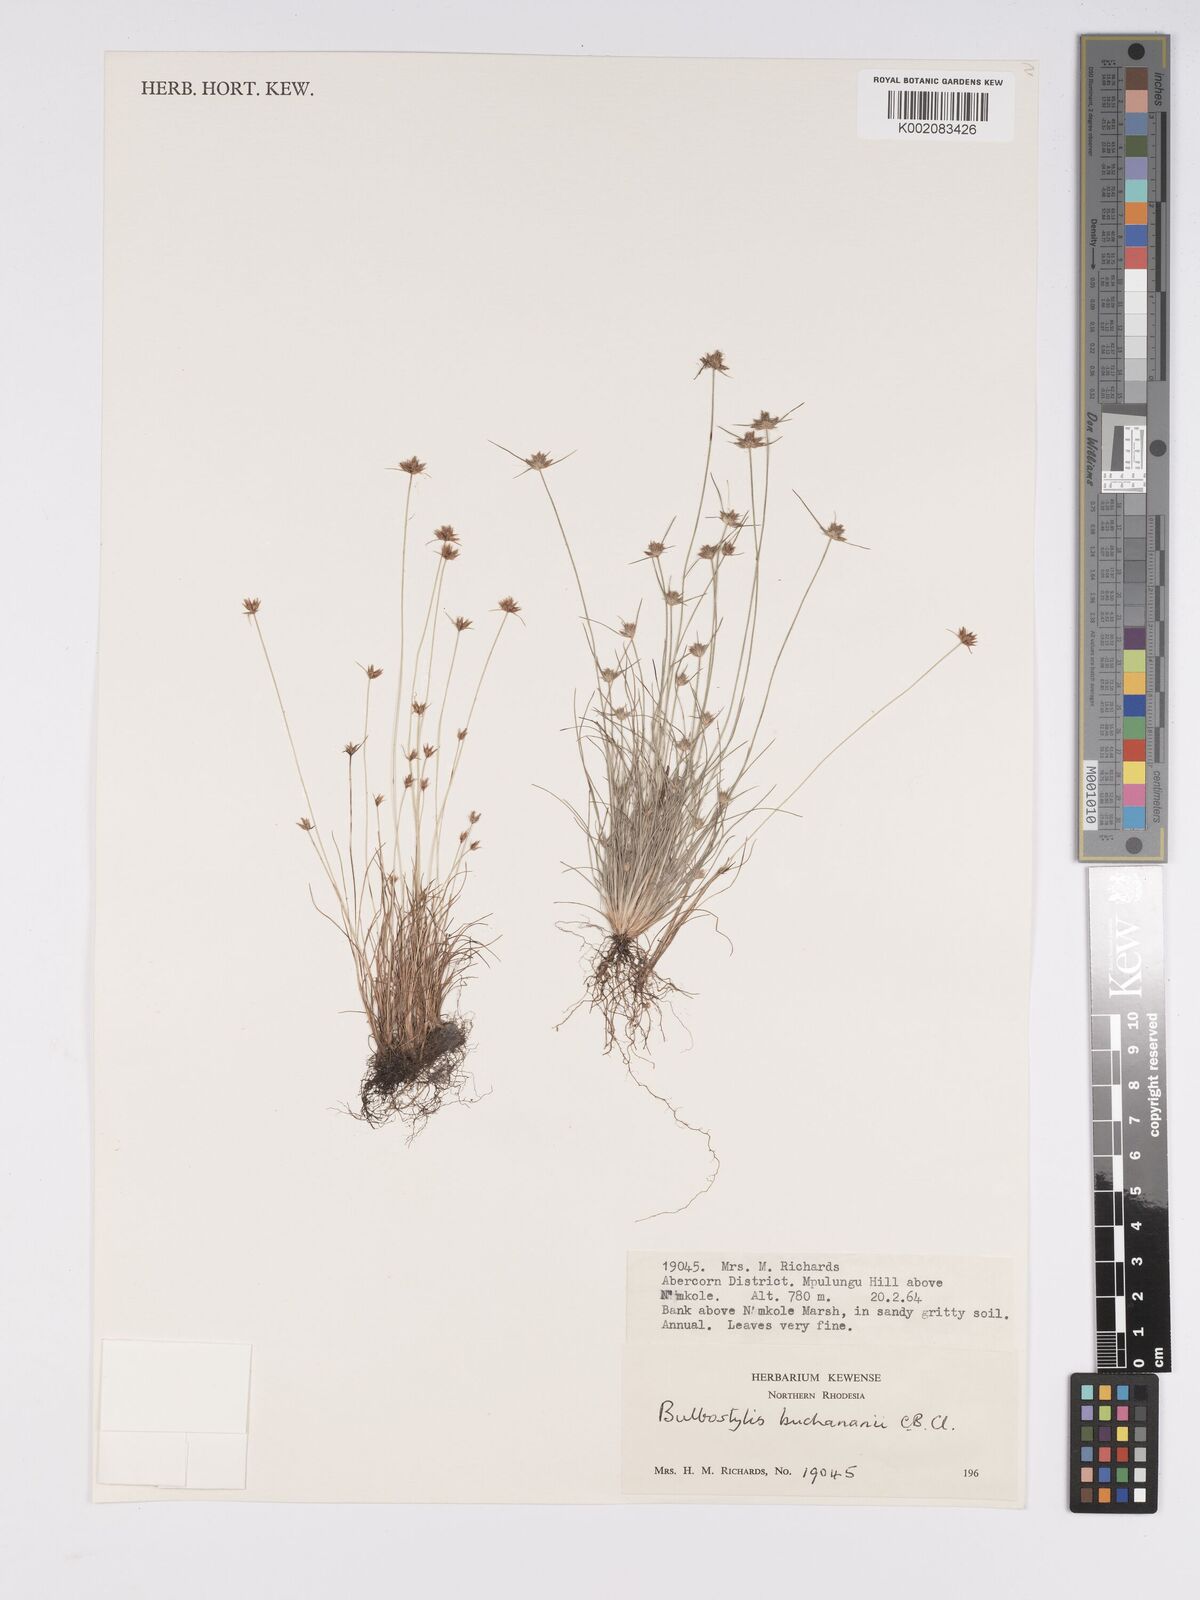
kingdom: Plantae
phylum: Tracheophyta
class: Liliopsida
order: Poales
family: Cyperaceae
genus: Bulbostylis
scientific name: Bulbostylis buchananii
